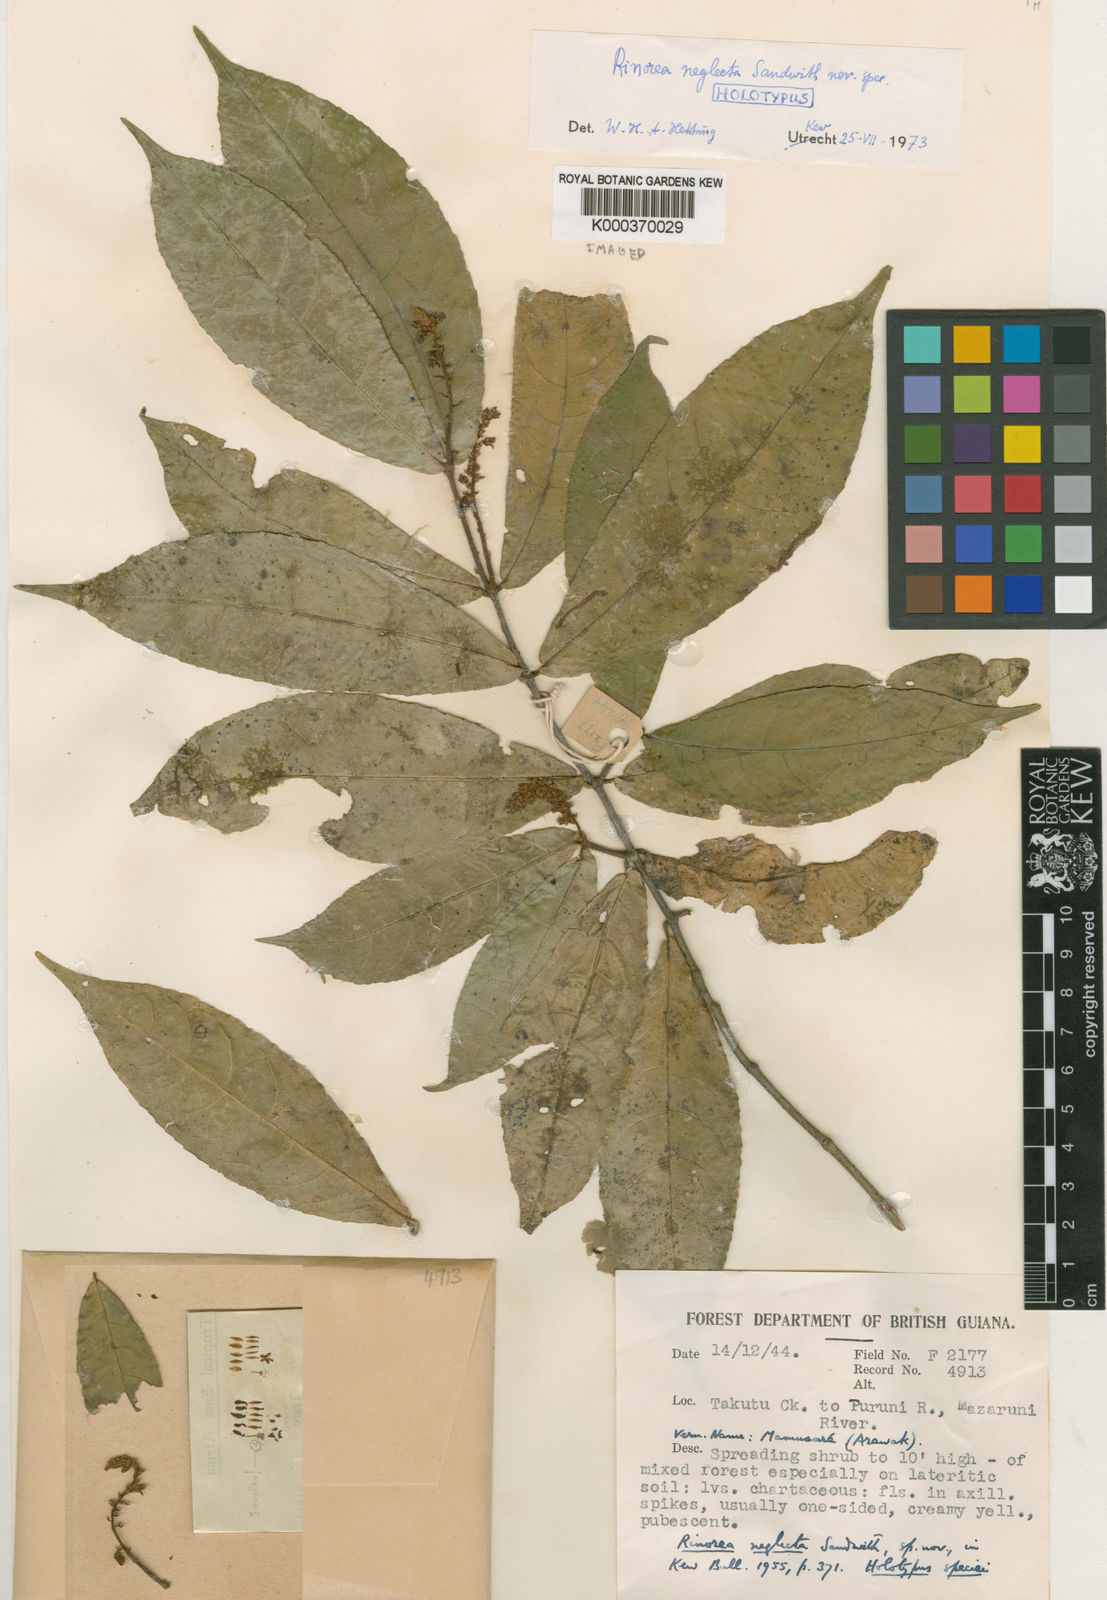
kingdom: Plantae
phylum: Tracheophyta
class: Magnoliopsida
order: Malpighiales
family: Violaceae
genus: Rinorea
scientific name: Rinorea neglecta
